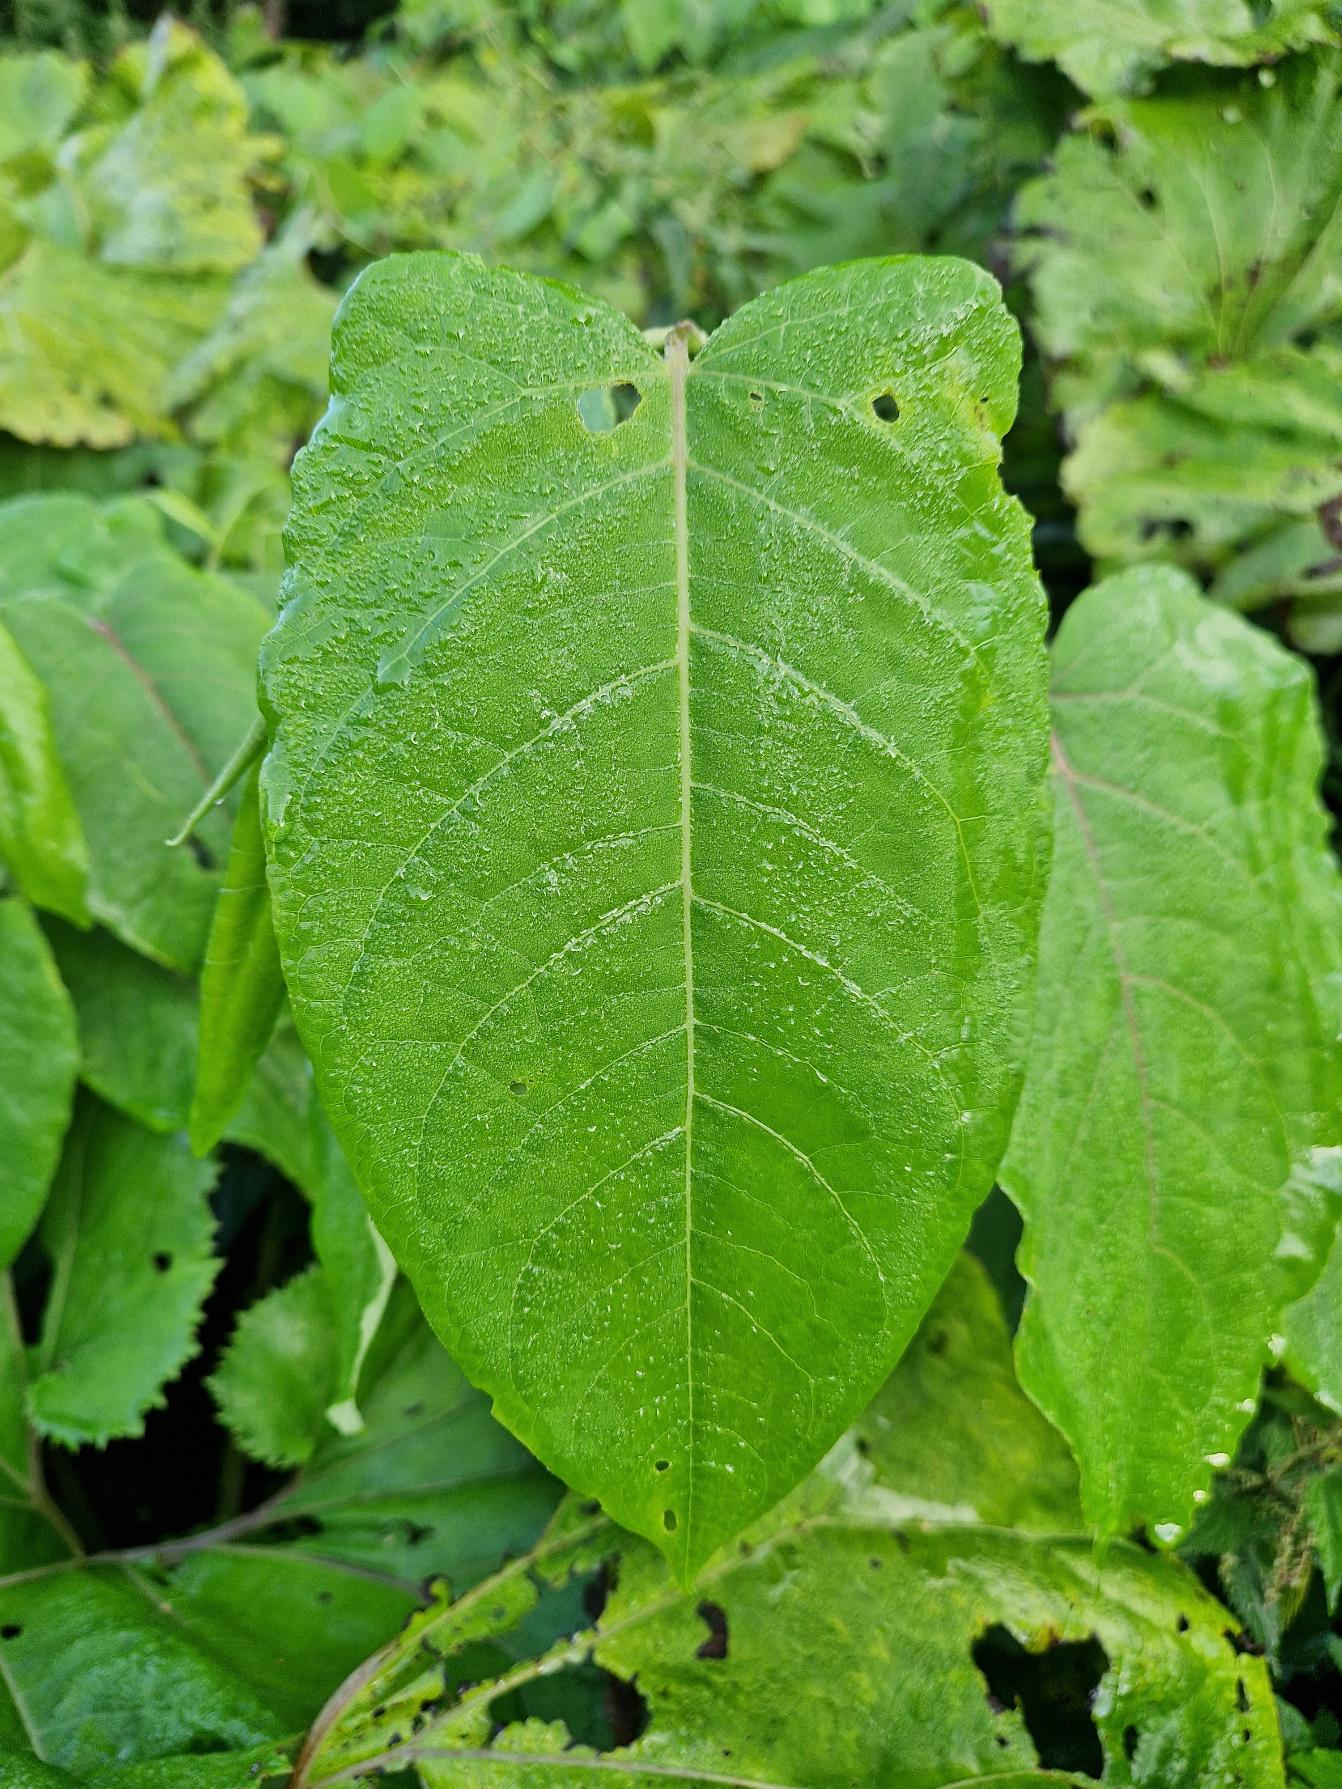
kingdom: Plantae
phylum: Tracheophyta
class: Magnoliopsida
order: Caryophyllales
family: Polygonaceae
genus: Reynoutria
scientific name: Reynoutria sachalinensis
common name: Kæmpe-pileurt
